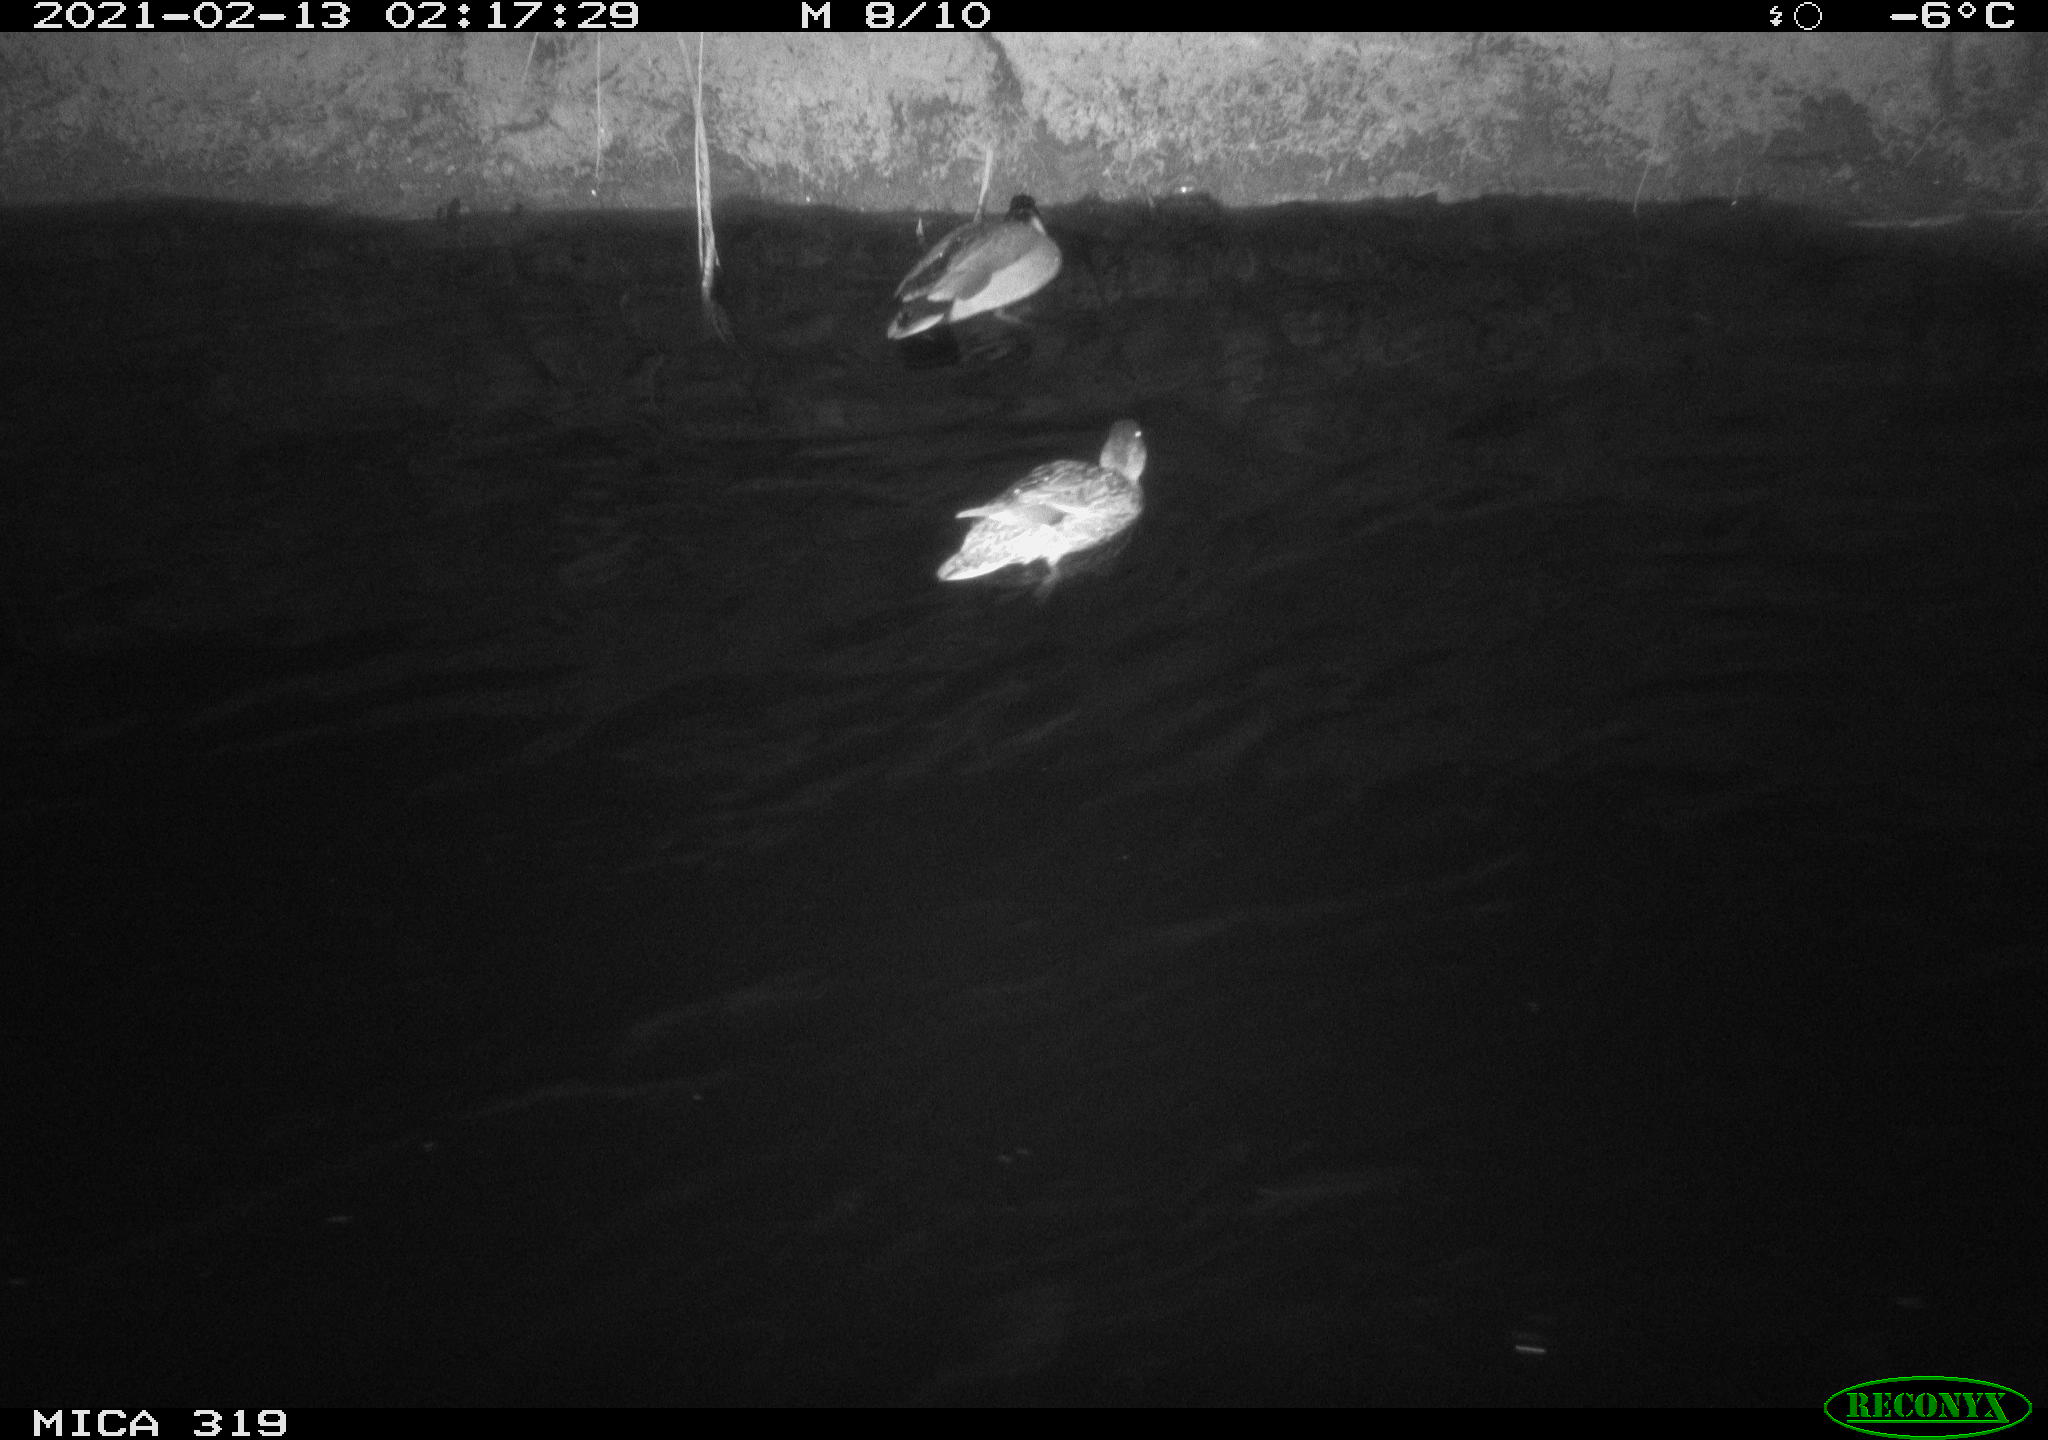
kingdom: Animalia
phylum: Chordata
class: Aves
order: Anseriformes
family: Anatidae
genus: Anas
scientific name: Anas platyrhynchos
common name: Mallard
